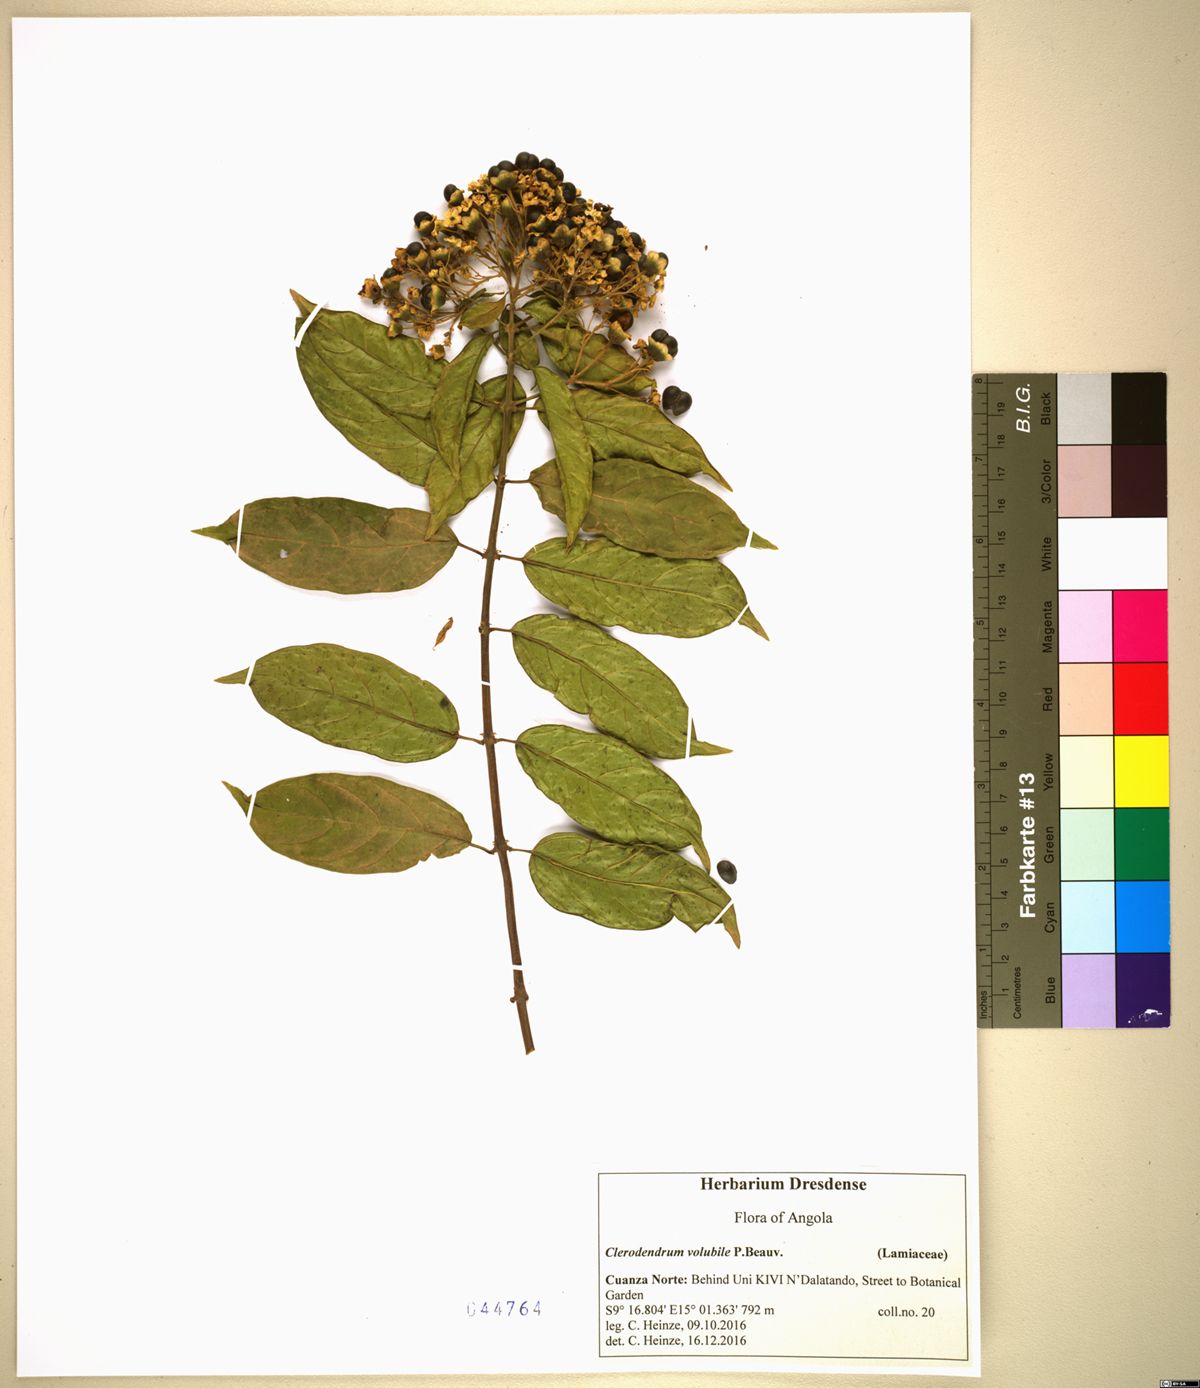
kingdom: Plantae
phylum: Tracheophyta
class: Magnoliopsida
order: Lamiales
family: Lamiaceae
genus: Clerodendrum
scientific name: Clerodendrum volubile
